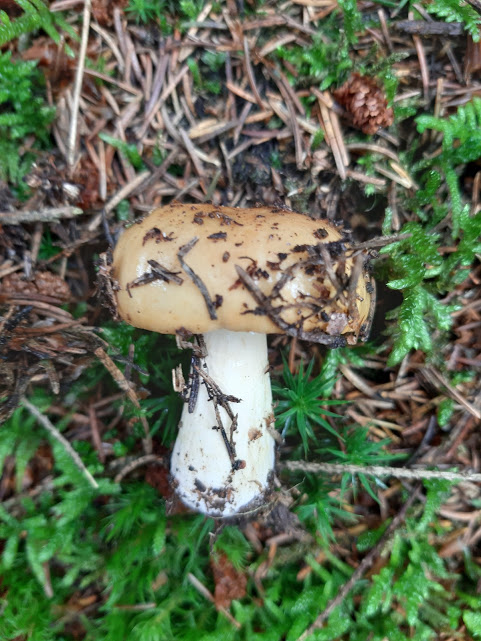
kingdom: Fungi
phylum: Basidiomycota
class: Agaricomycetes
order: Russulales
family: Russulaceae
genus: Russula
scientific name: Russula ochroleuca
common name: okkergul skørhat
